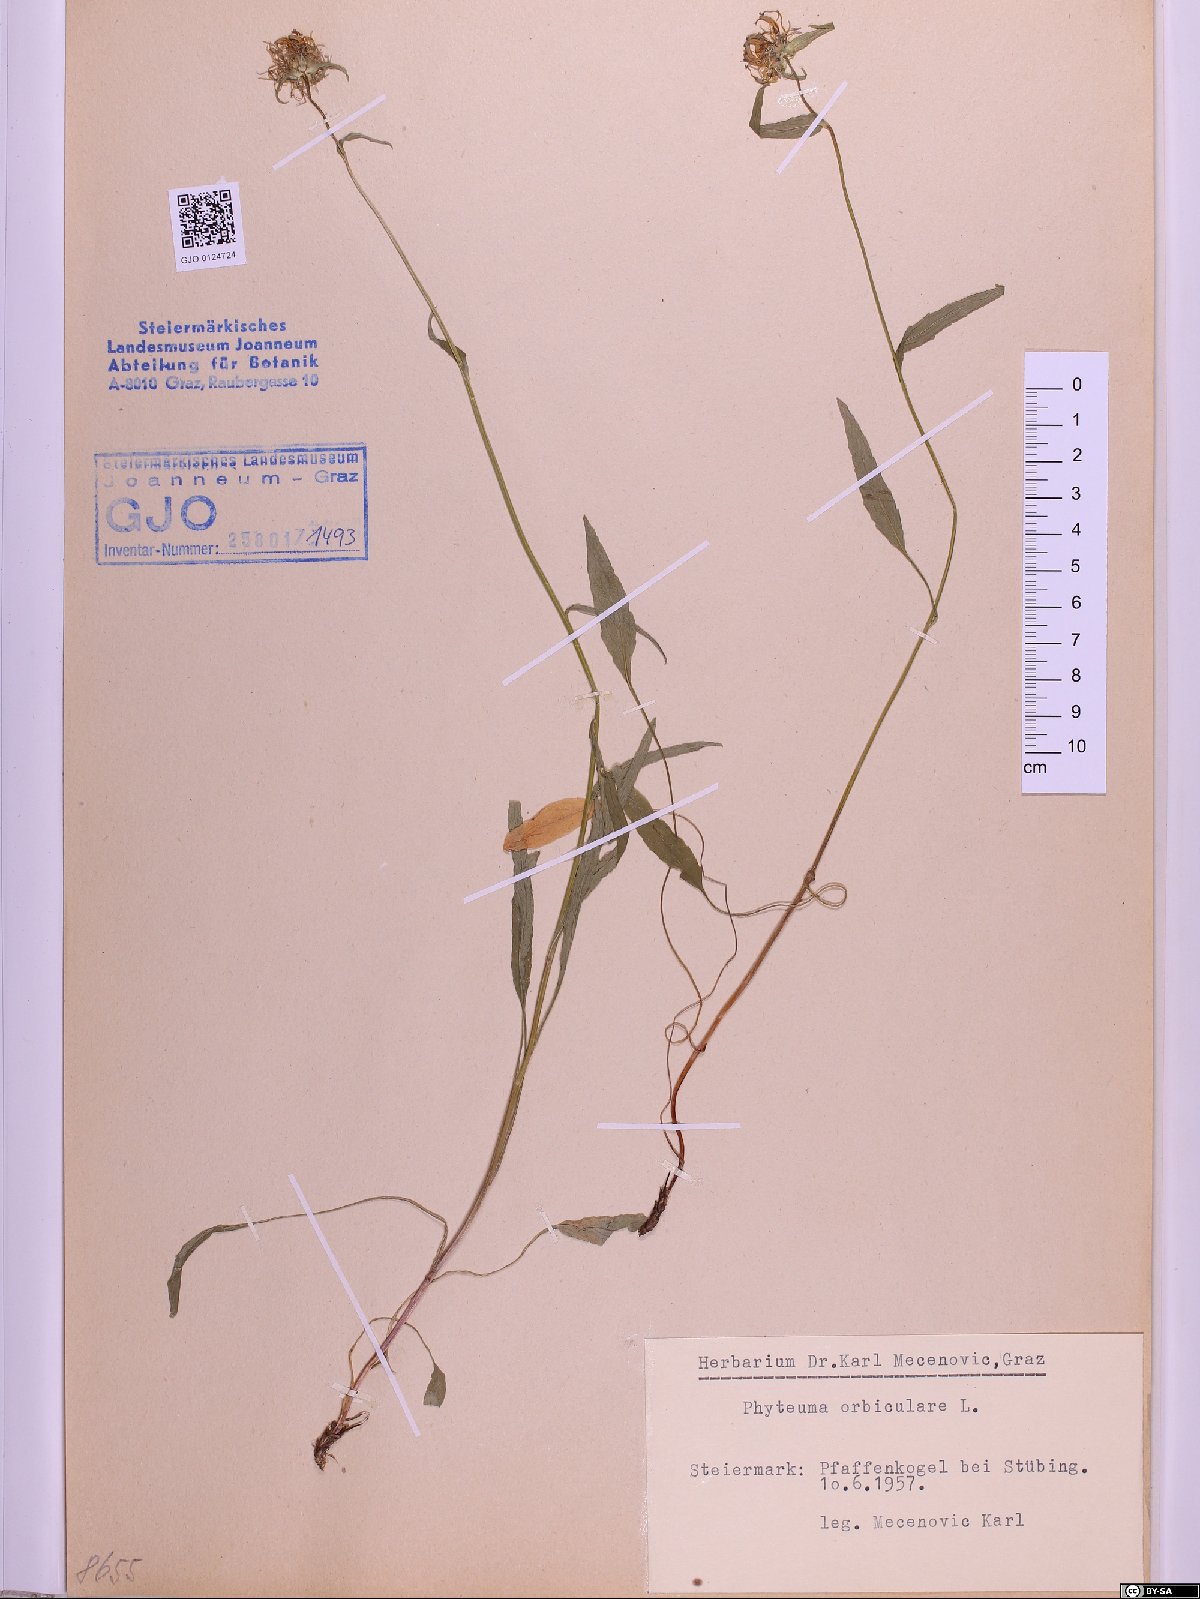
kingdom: Plantae
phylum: Tracheophyta
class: Magnoliopsida
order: Asterales
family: Campanulaceae
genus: Phyteuma
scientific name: Phyteuma orbiculare
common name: Round-headed rampion
